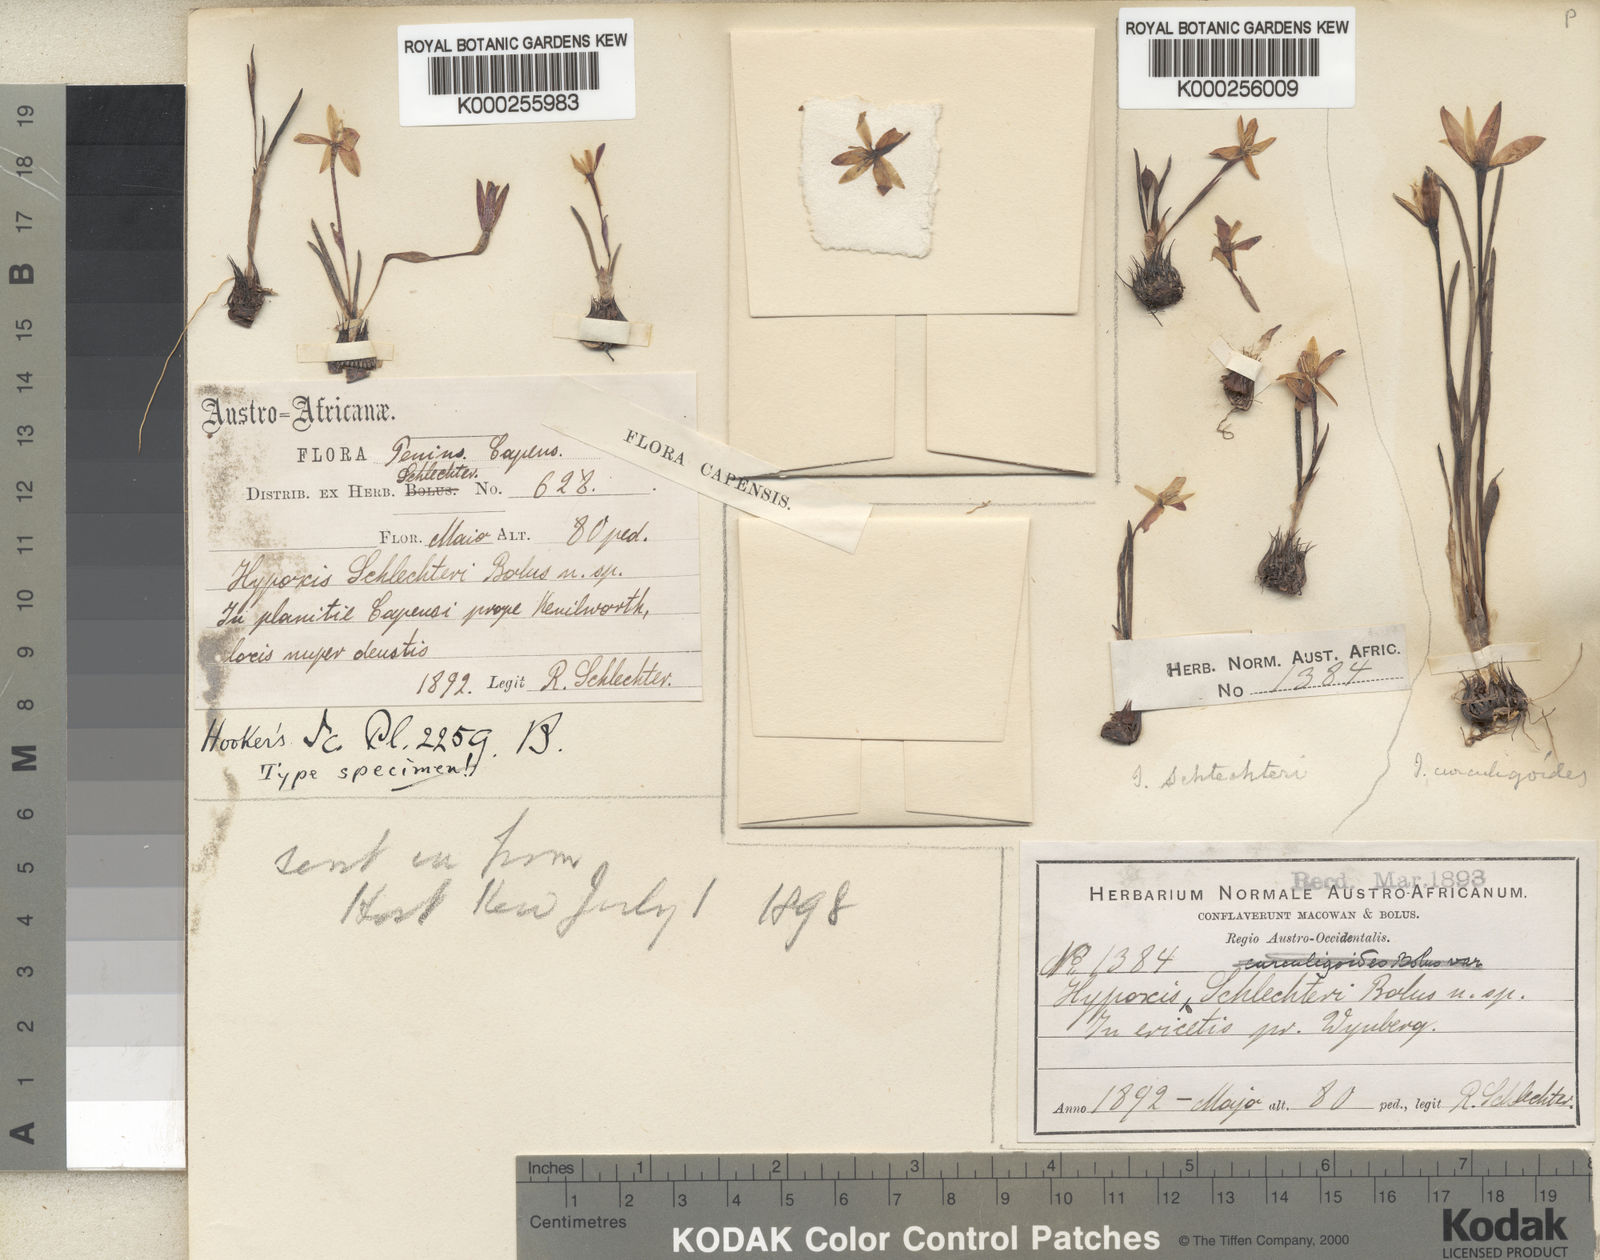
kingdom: Plantae
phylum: Tracheophyta
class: Liliopsida
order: Asparagales
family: Hypoxidaceae
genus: Pauridia
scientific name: Pauridia affinis
